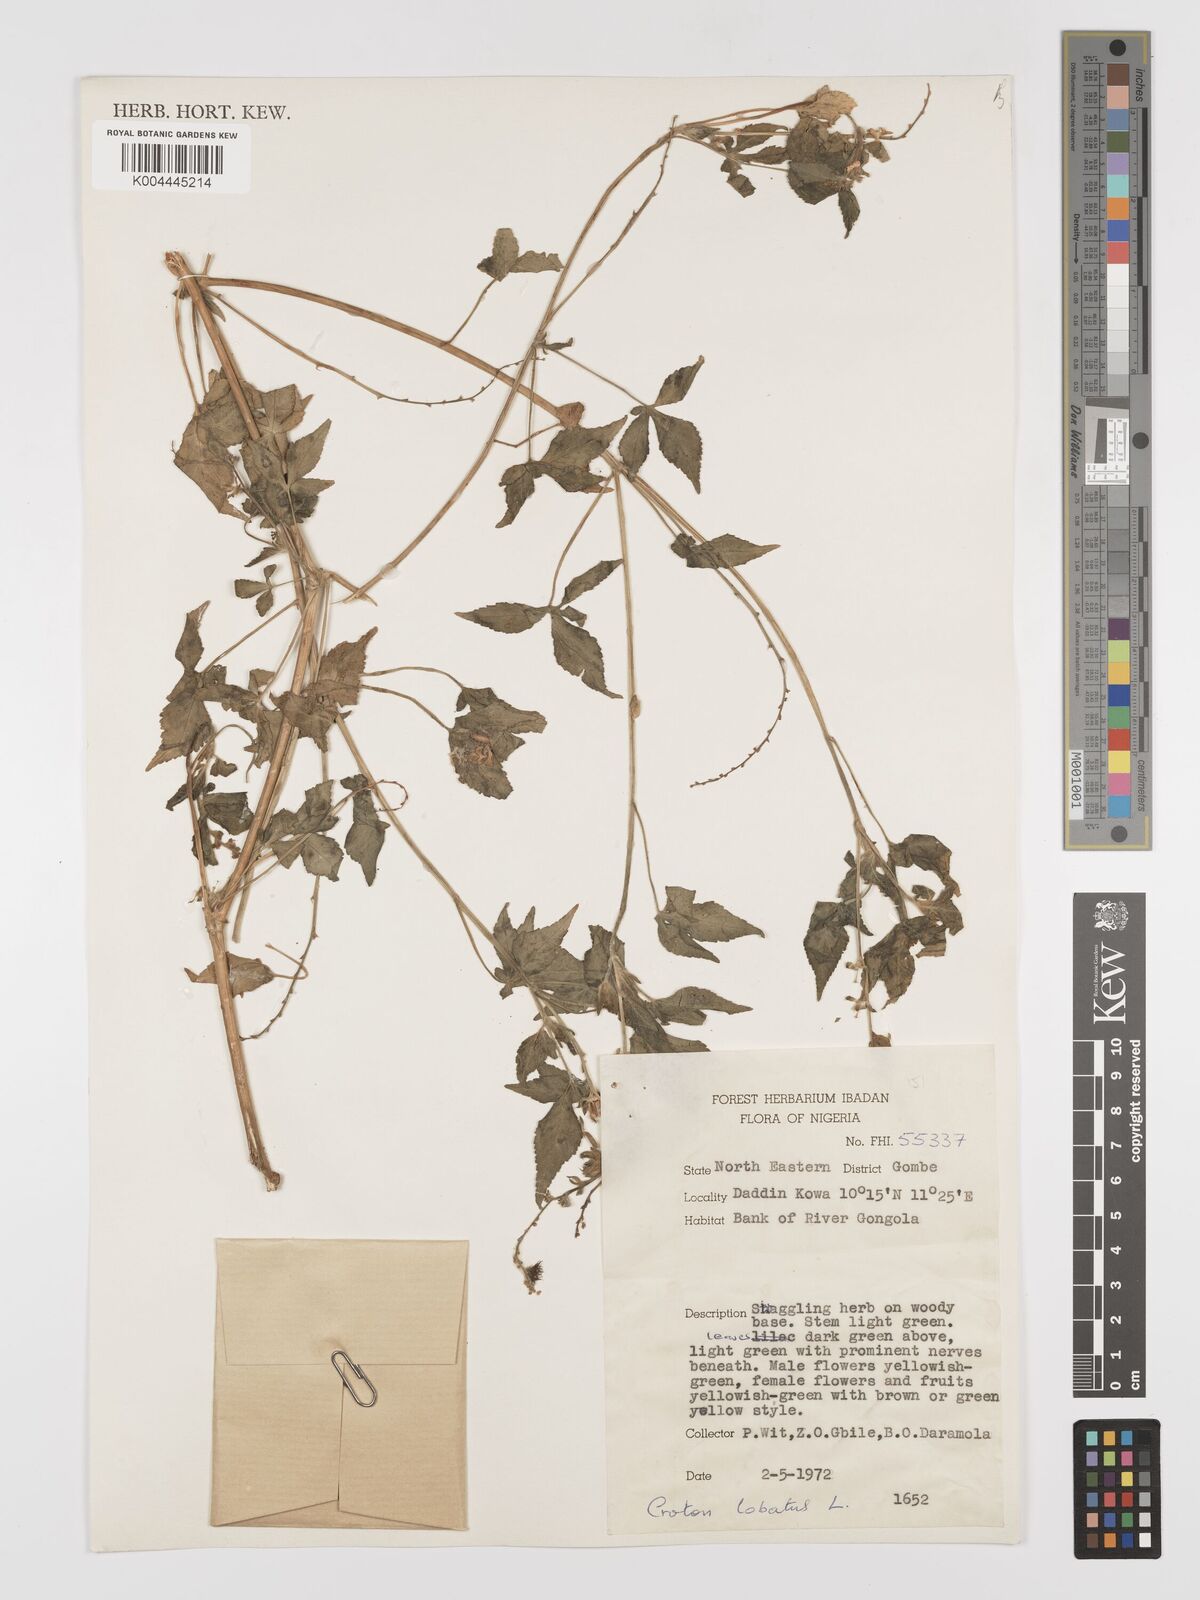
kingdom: Plantae
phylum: Tracheophyta
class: Magnoliopsida
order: Malpighiales
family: Euphorbiaceae
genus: Astraea
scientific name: Astraea lobata
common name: Lobed croton
